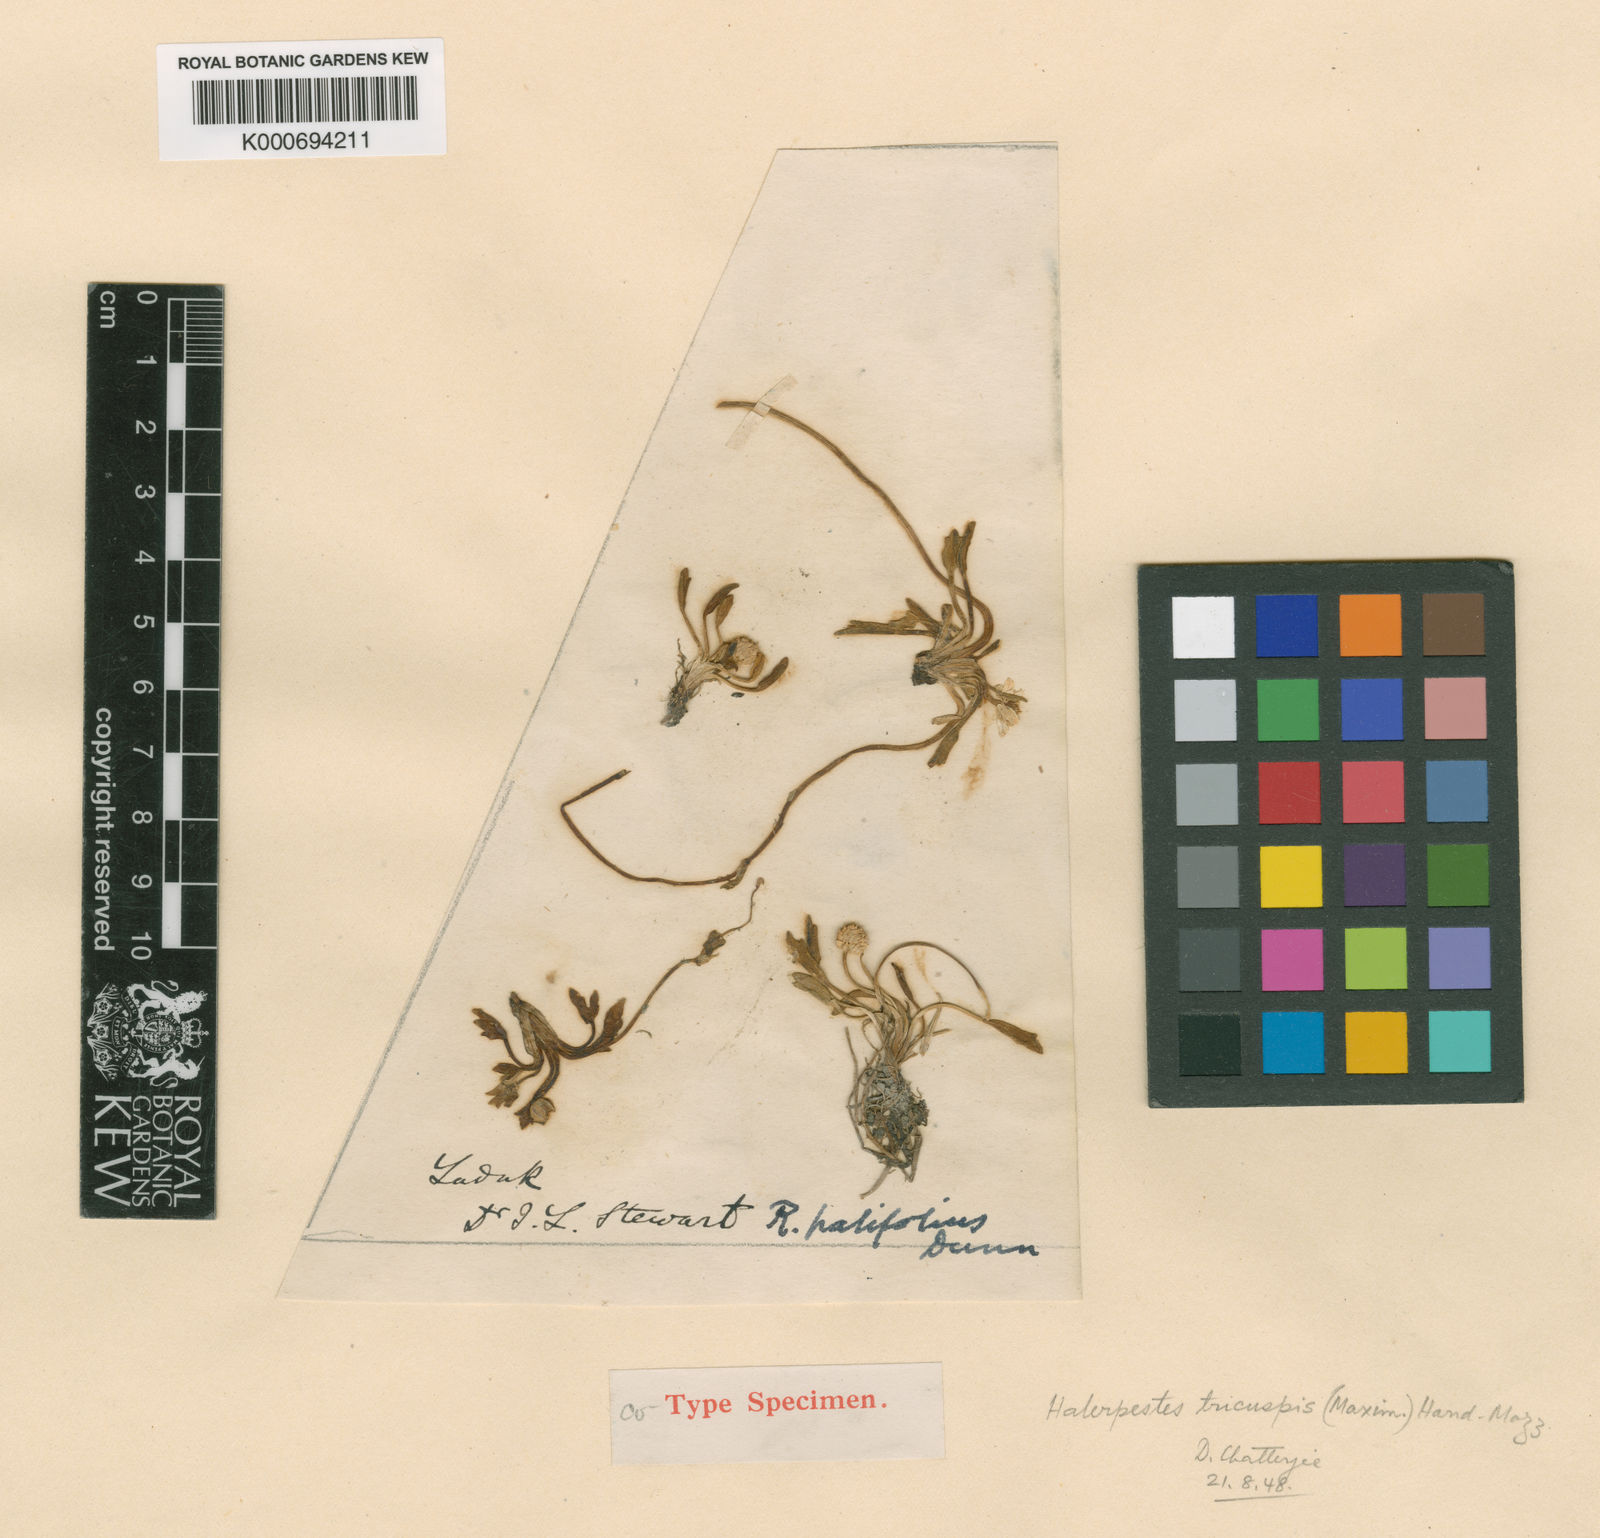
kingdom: Plantae
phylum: Tracheophyta
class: Magnoliopsida
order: Ranunculales
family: Ranunculaceae
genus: Halerpestes
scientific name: Halerpestes tricuspis
